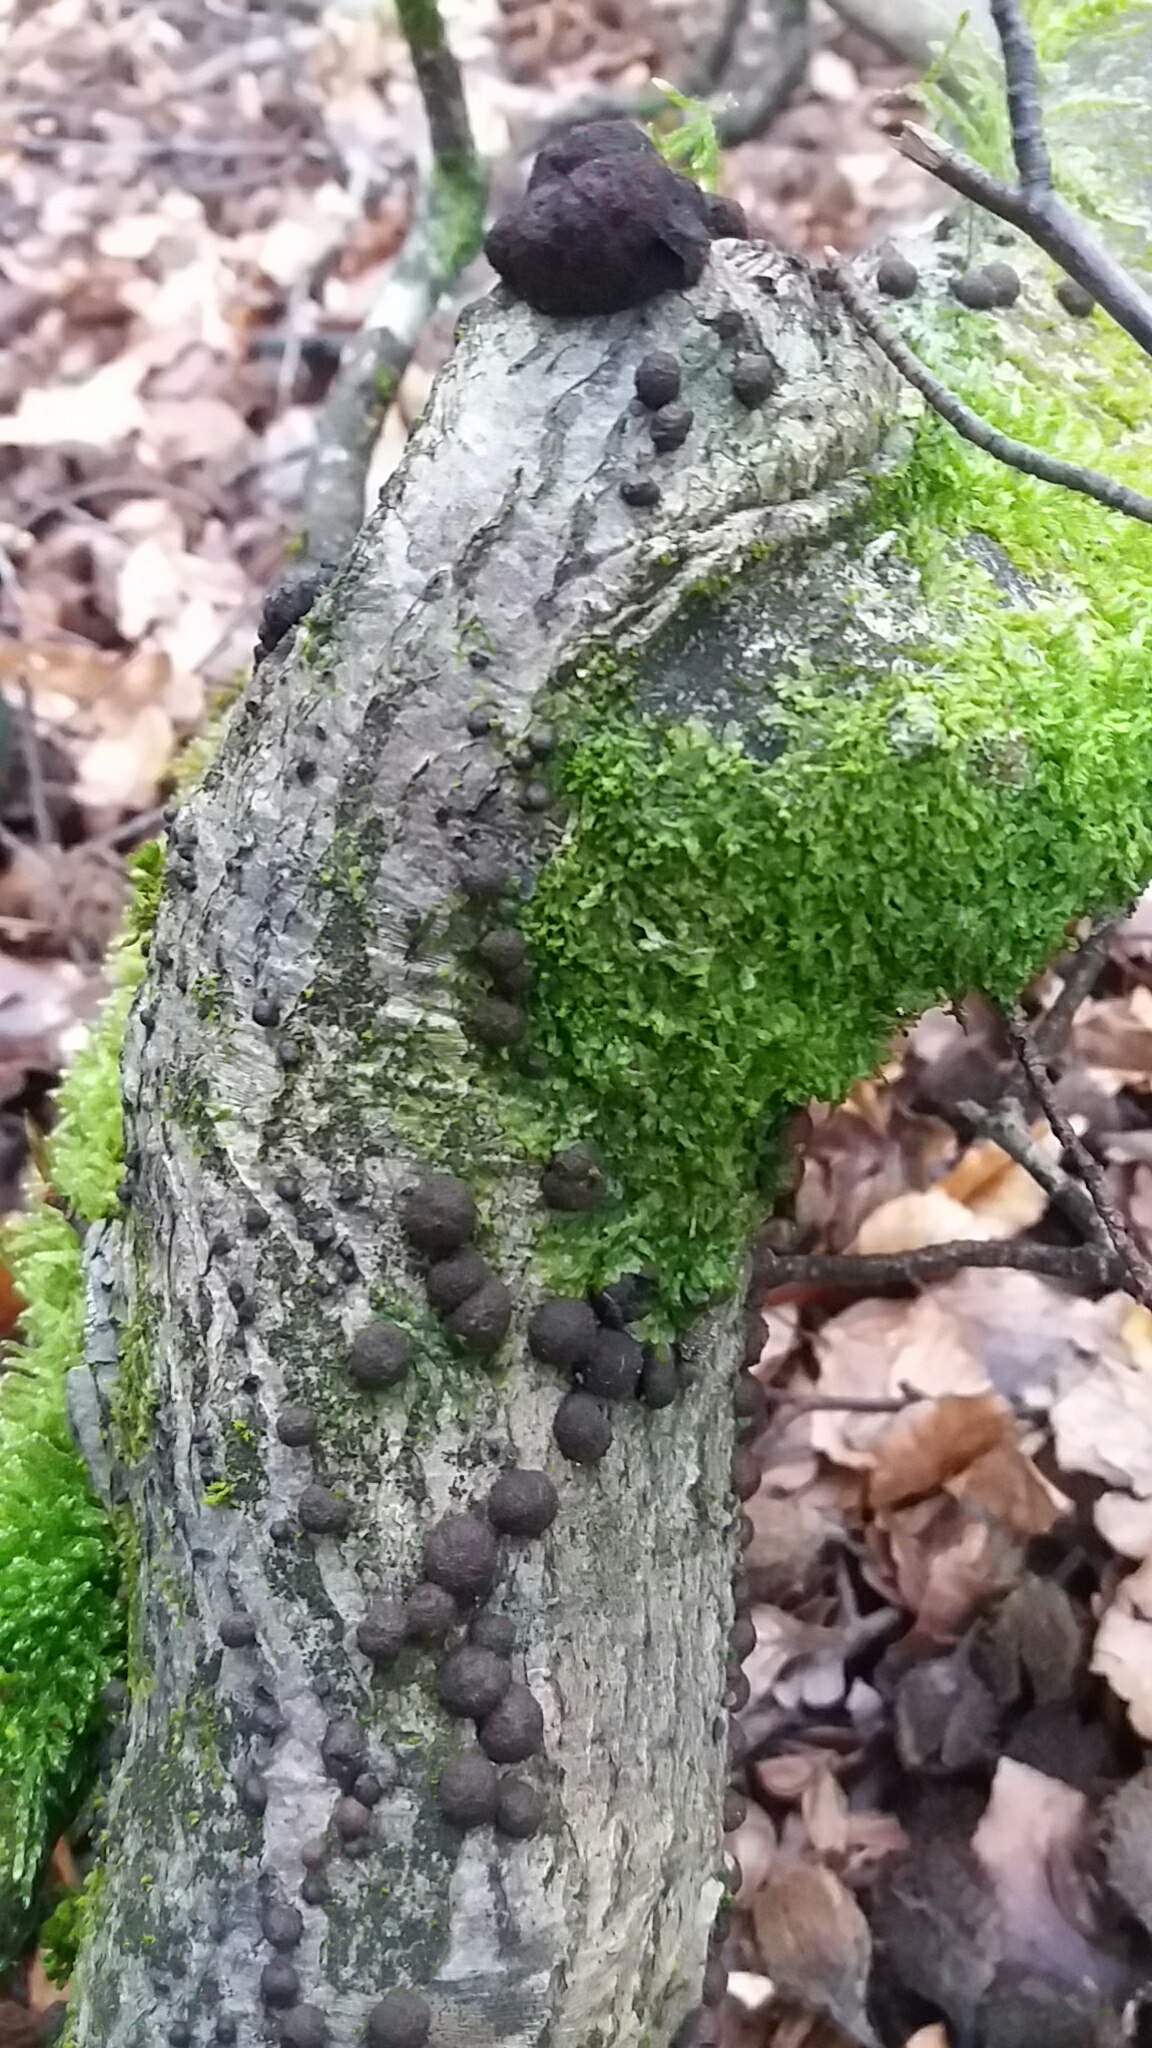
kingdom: Fungi
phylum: Ascomycota
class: Sordariomycetes
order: Xylariales
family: Hypoxylaceae
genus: Hypoxylon
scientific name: Hypoxylon fragiforme
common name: kuljordbær
